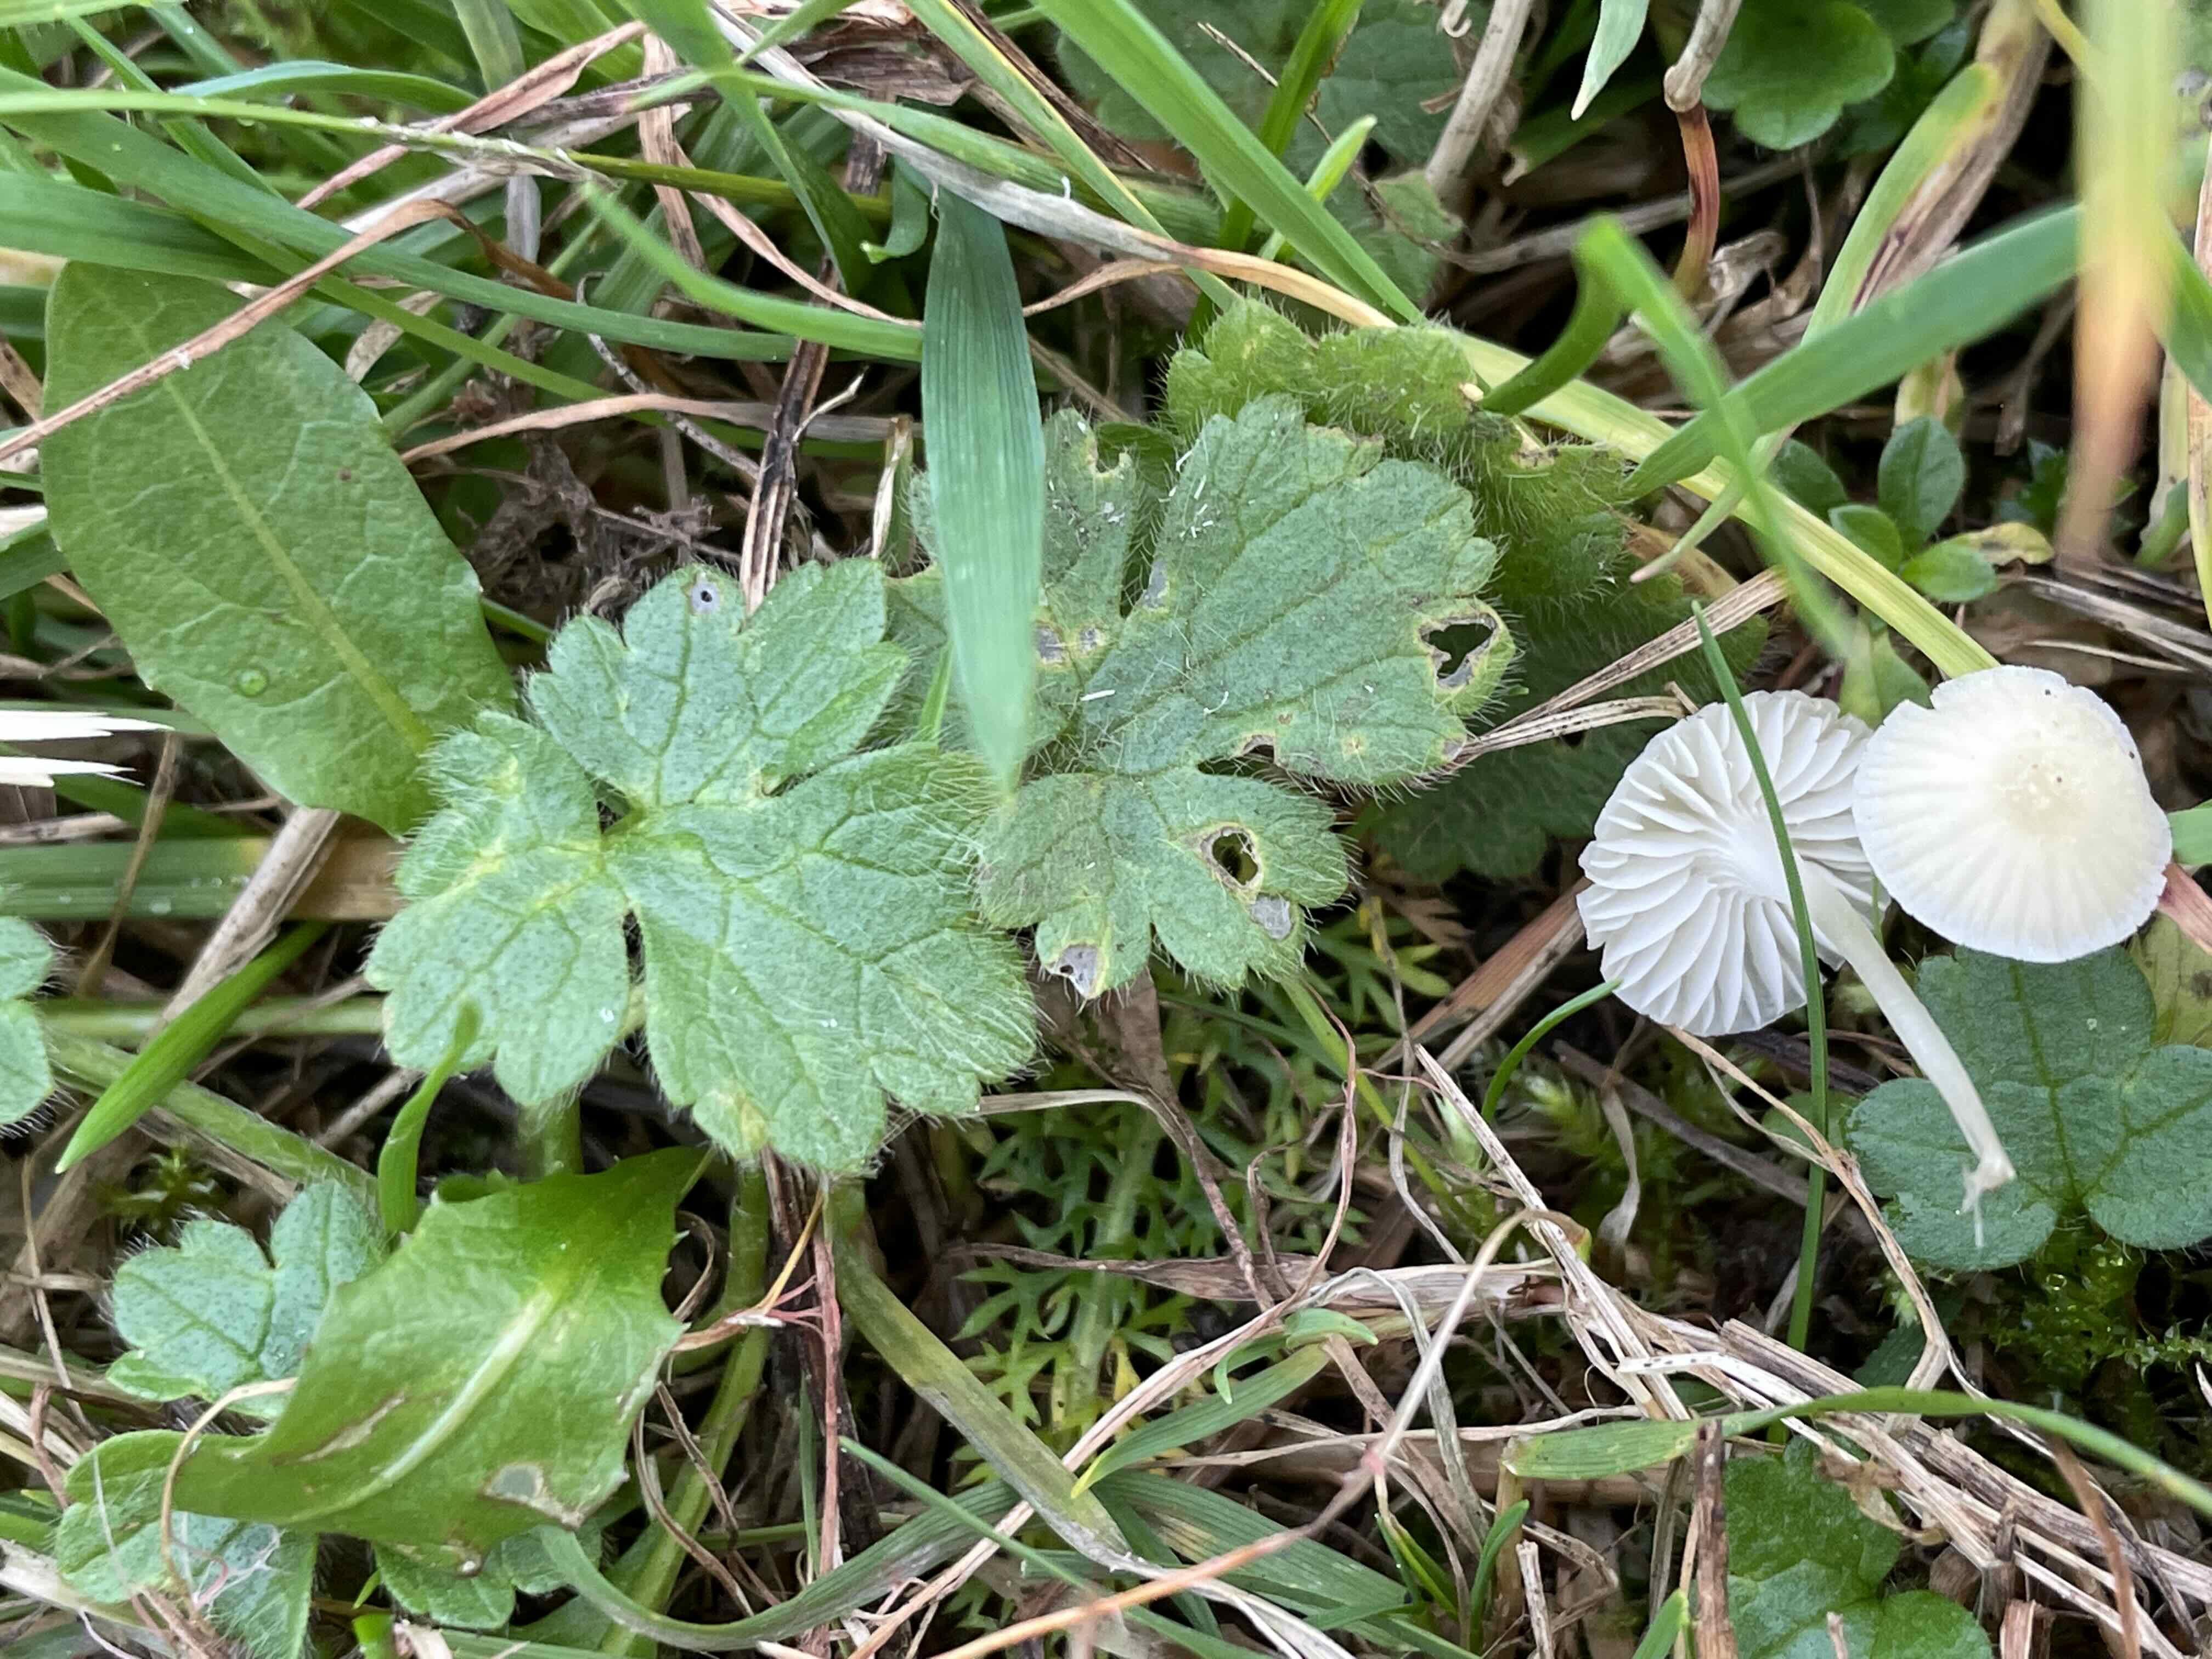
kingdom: Fungi
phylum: Basidiomycota
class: Agaricomycetes
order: Agaricales
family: Mycenaceae
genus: Atheniella
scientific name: Atheniella flavoalba
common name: gulhvid huesvamp
